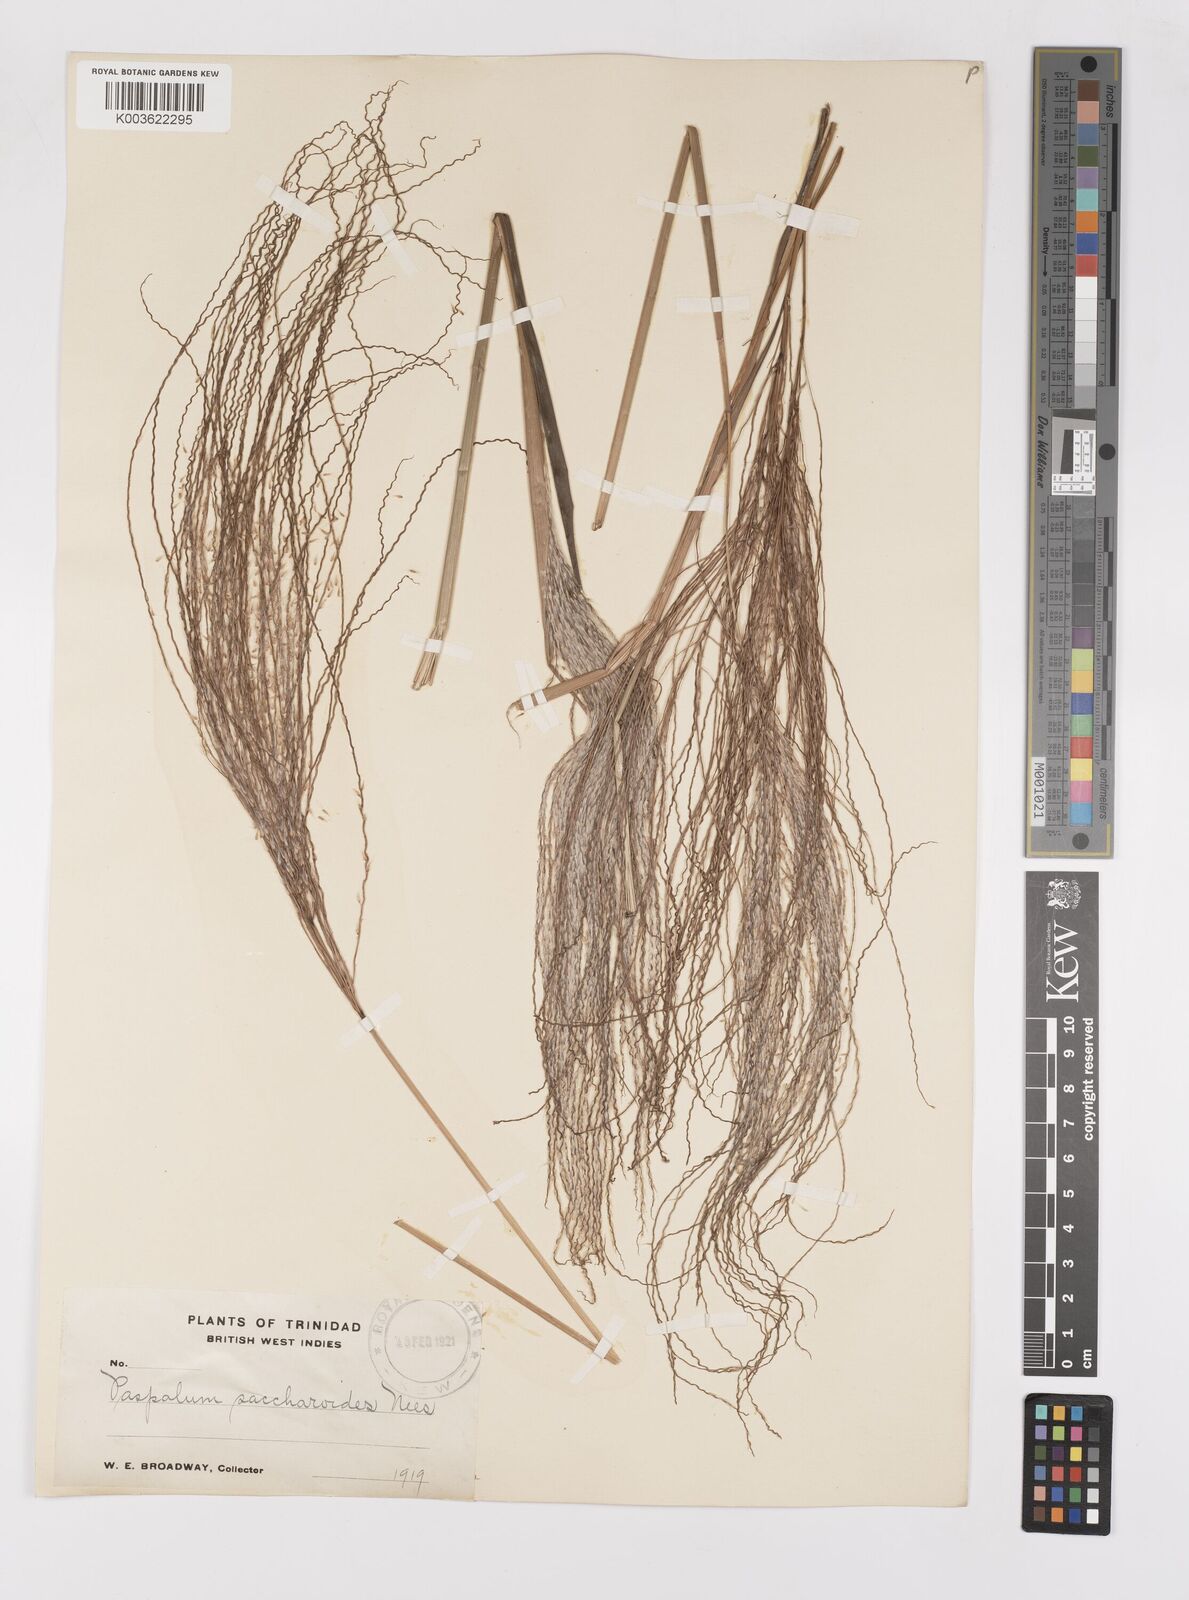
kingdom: Plantae
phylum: Tracheophyta
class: Liliopsida
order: Poales
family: Poaceae
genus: Paspalum
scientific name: Paspalum saccharoides
